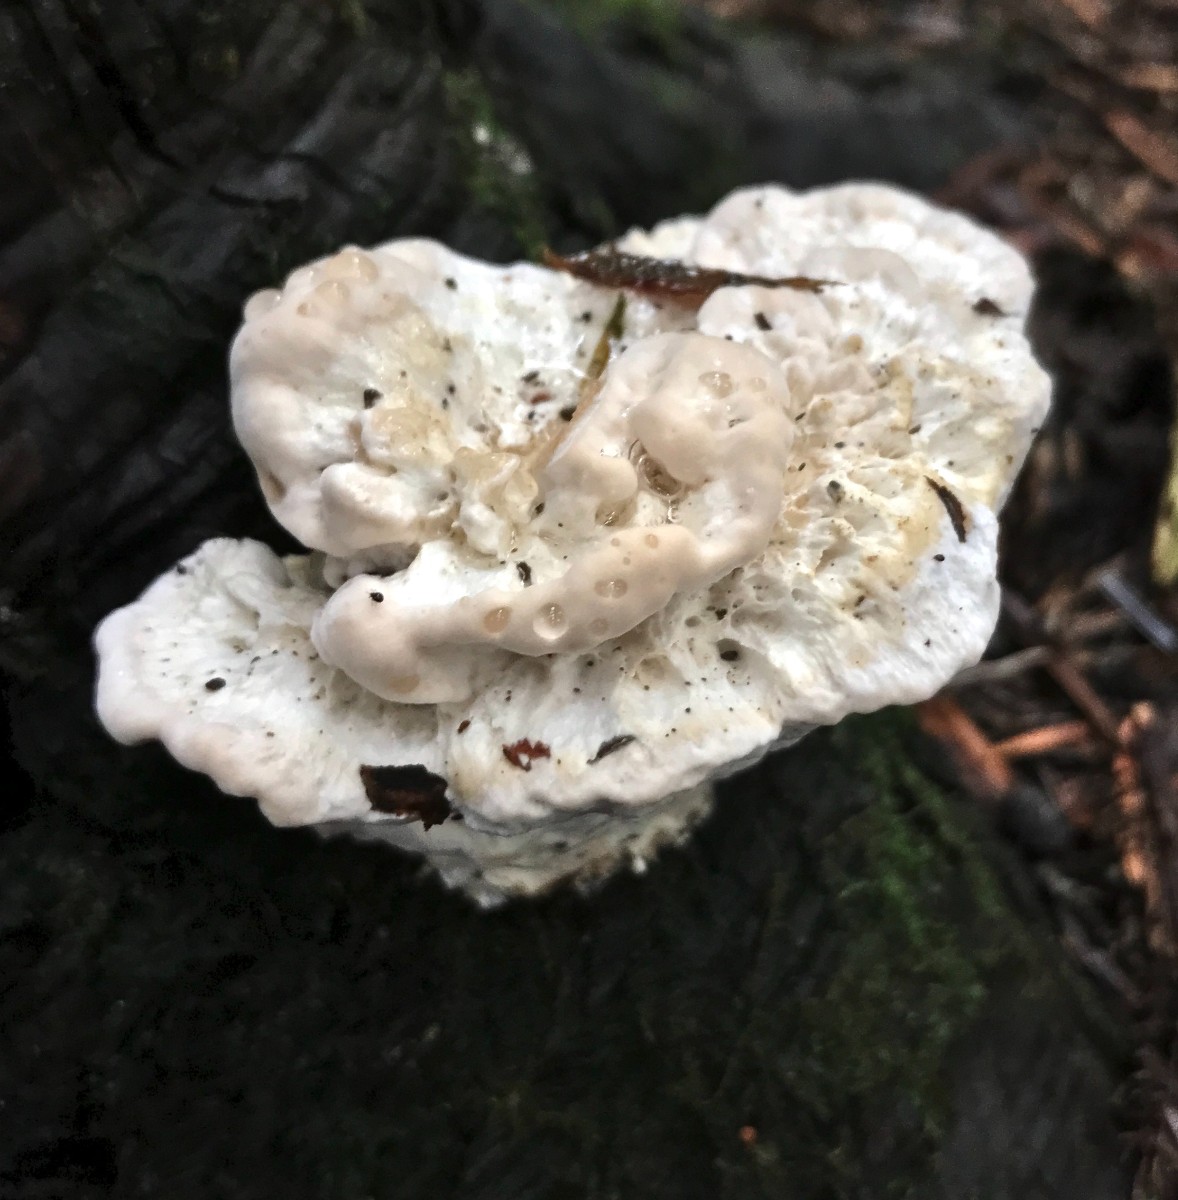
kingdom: Fungi
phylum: Basidiomycota
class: Agaricomycetes
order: Polyporales
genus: Calcipostia
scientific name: Calcipostia guttulata
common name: dråbe-kødporesvamp
